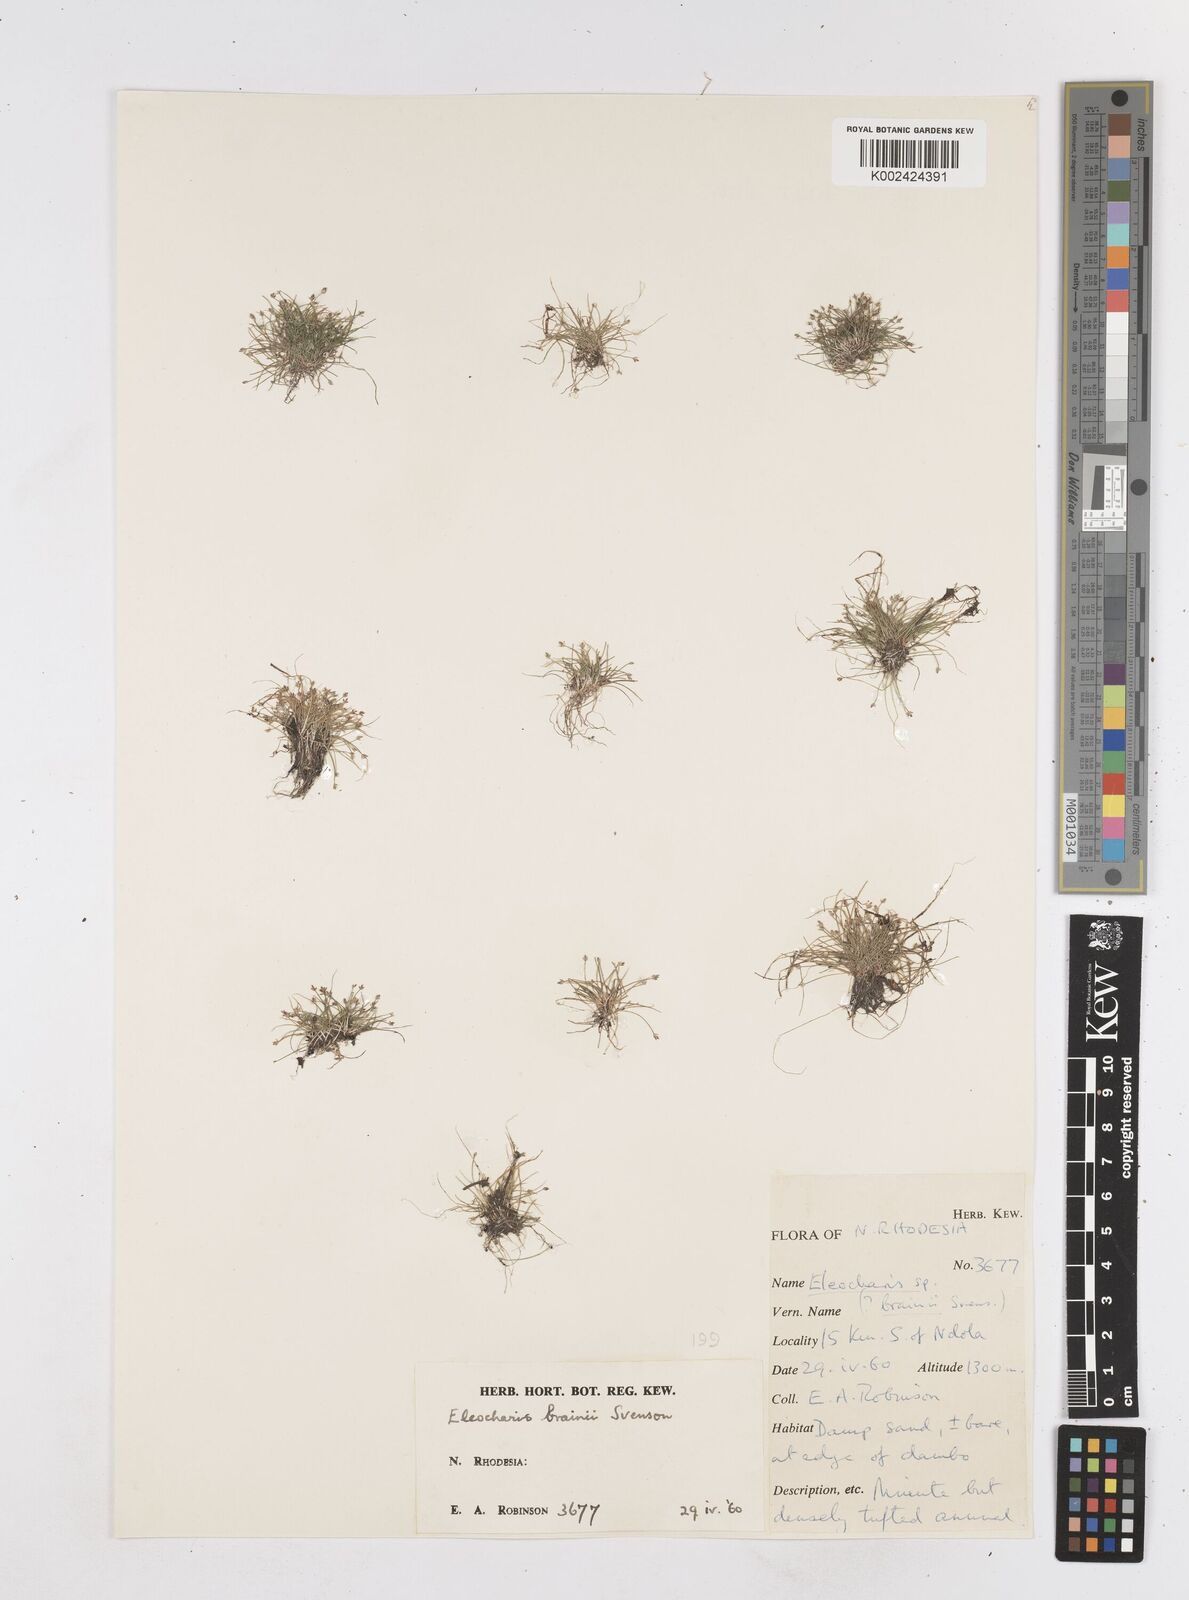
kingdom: Plantae
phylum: Tracheophyta
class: Liliopsida
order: Poales
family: Cyperaceae
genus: Eleocharis
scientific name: Eleocharis brainii
